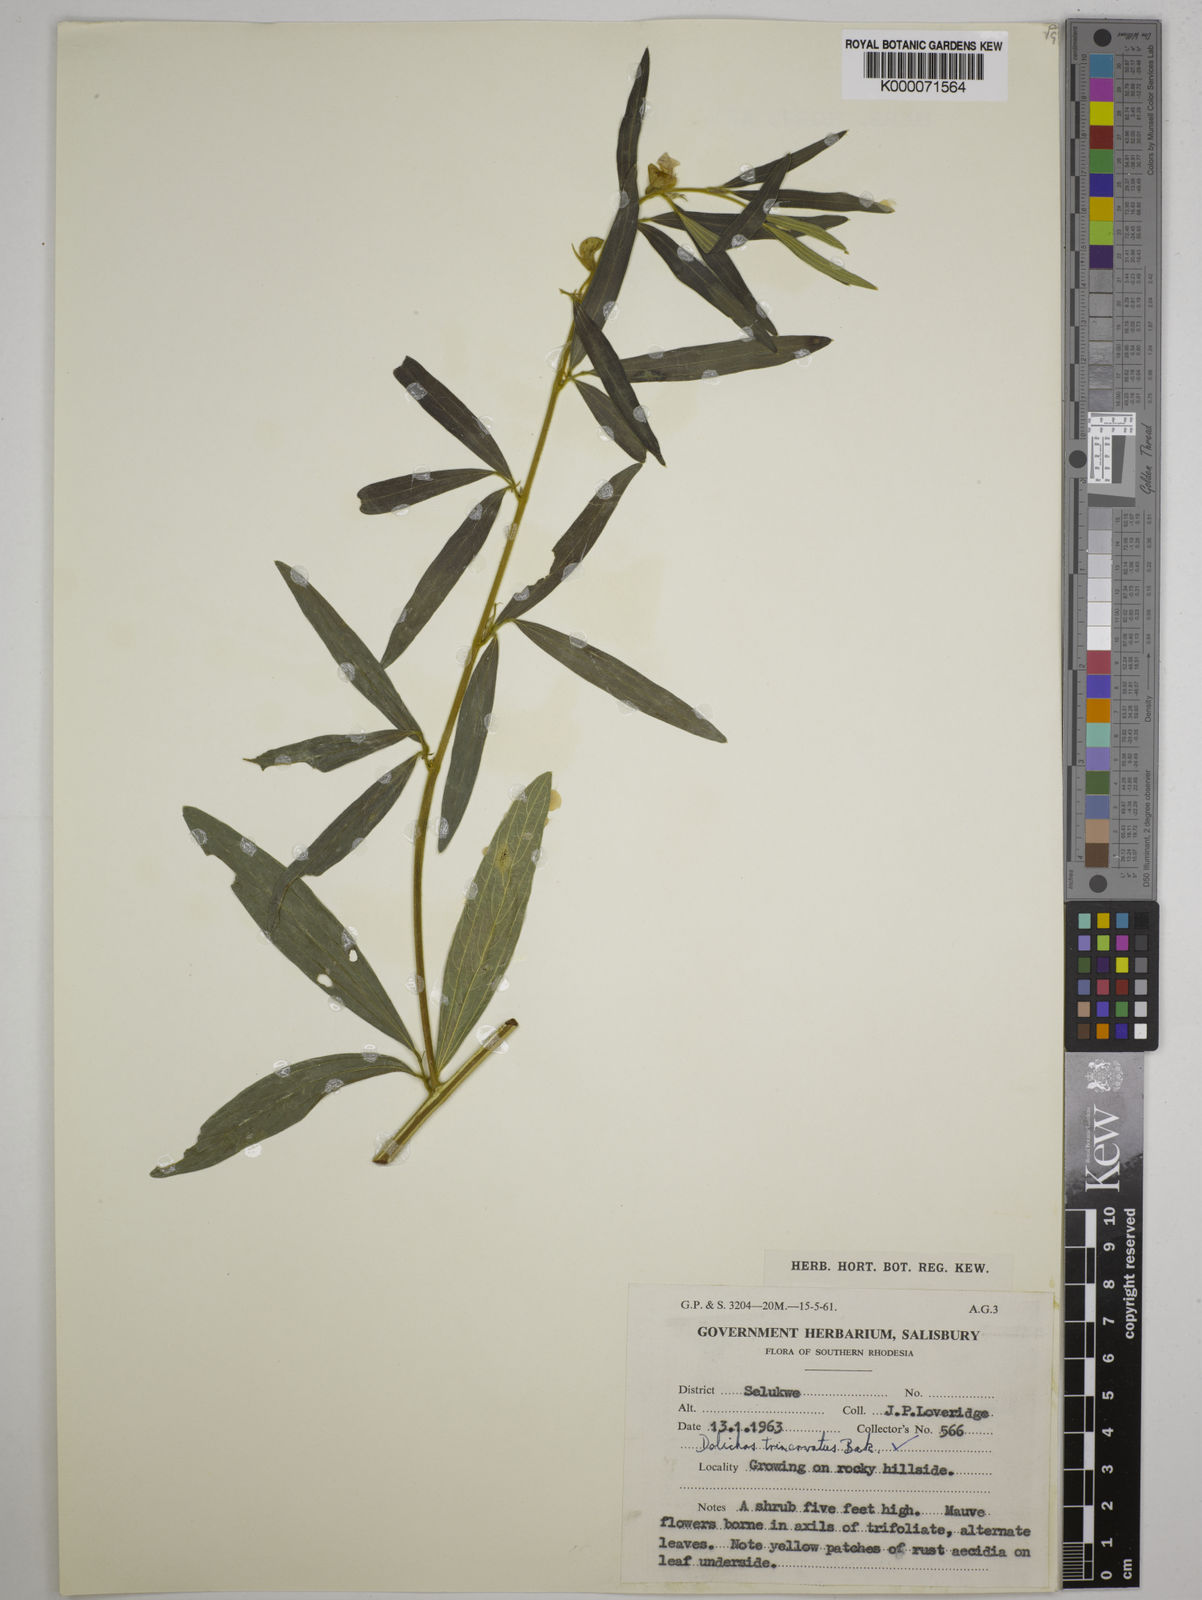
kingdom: Plantae
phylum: Tracheophyta
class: Magnoliopsida
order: Fabales
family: Fabaceae
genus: Dolichos
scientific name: Dolichos trinervatus
